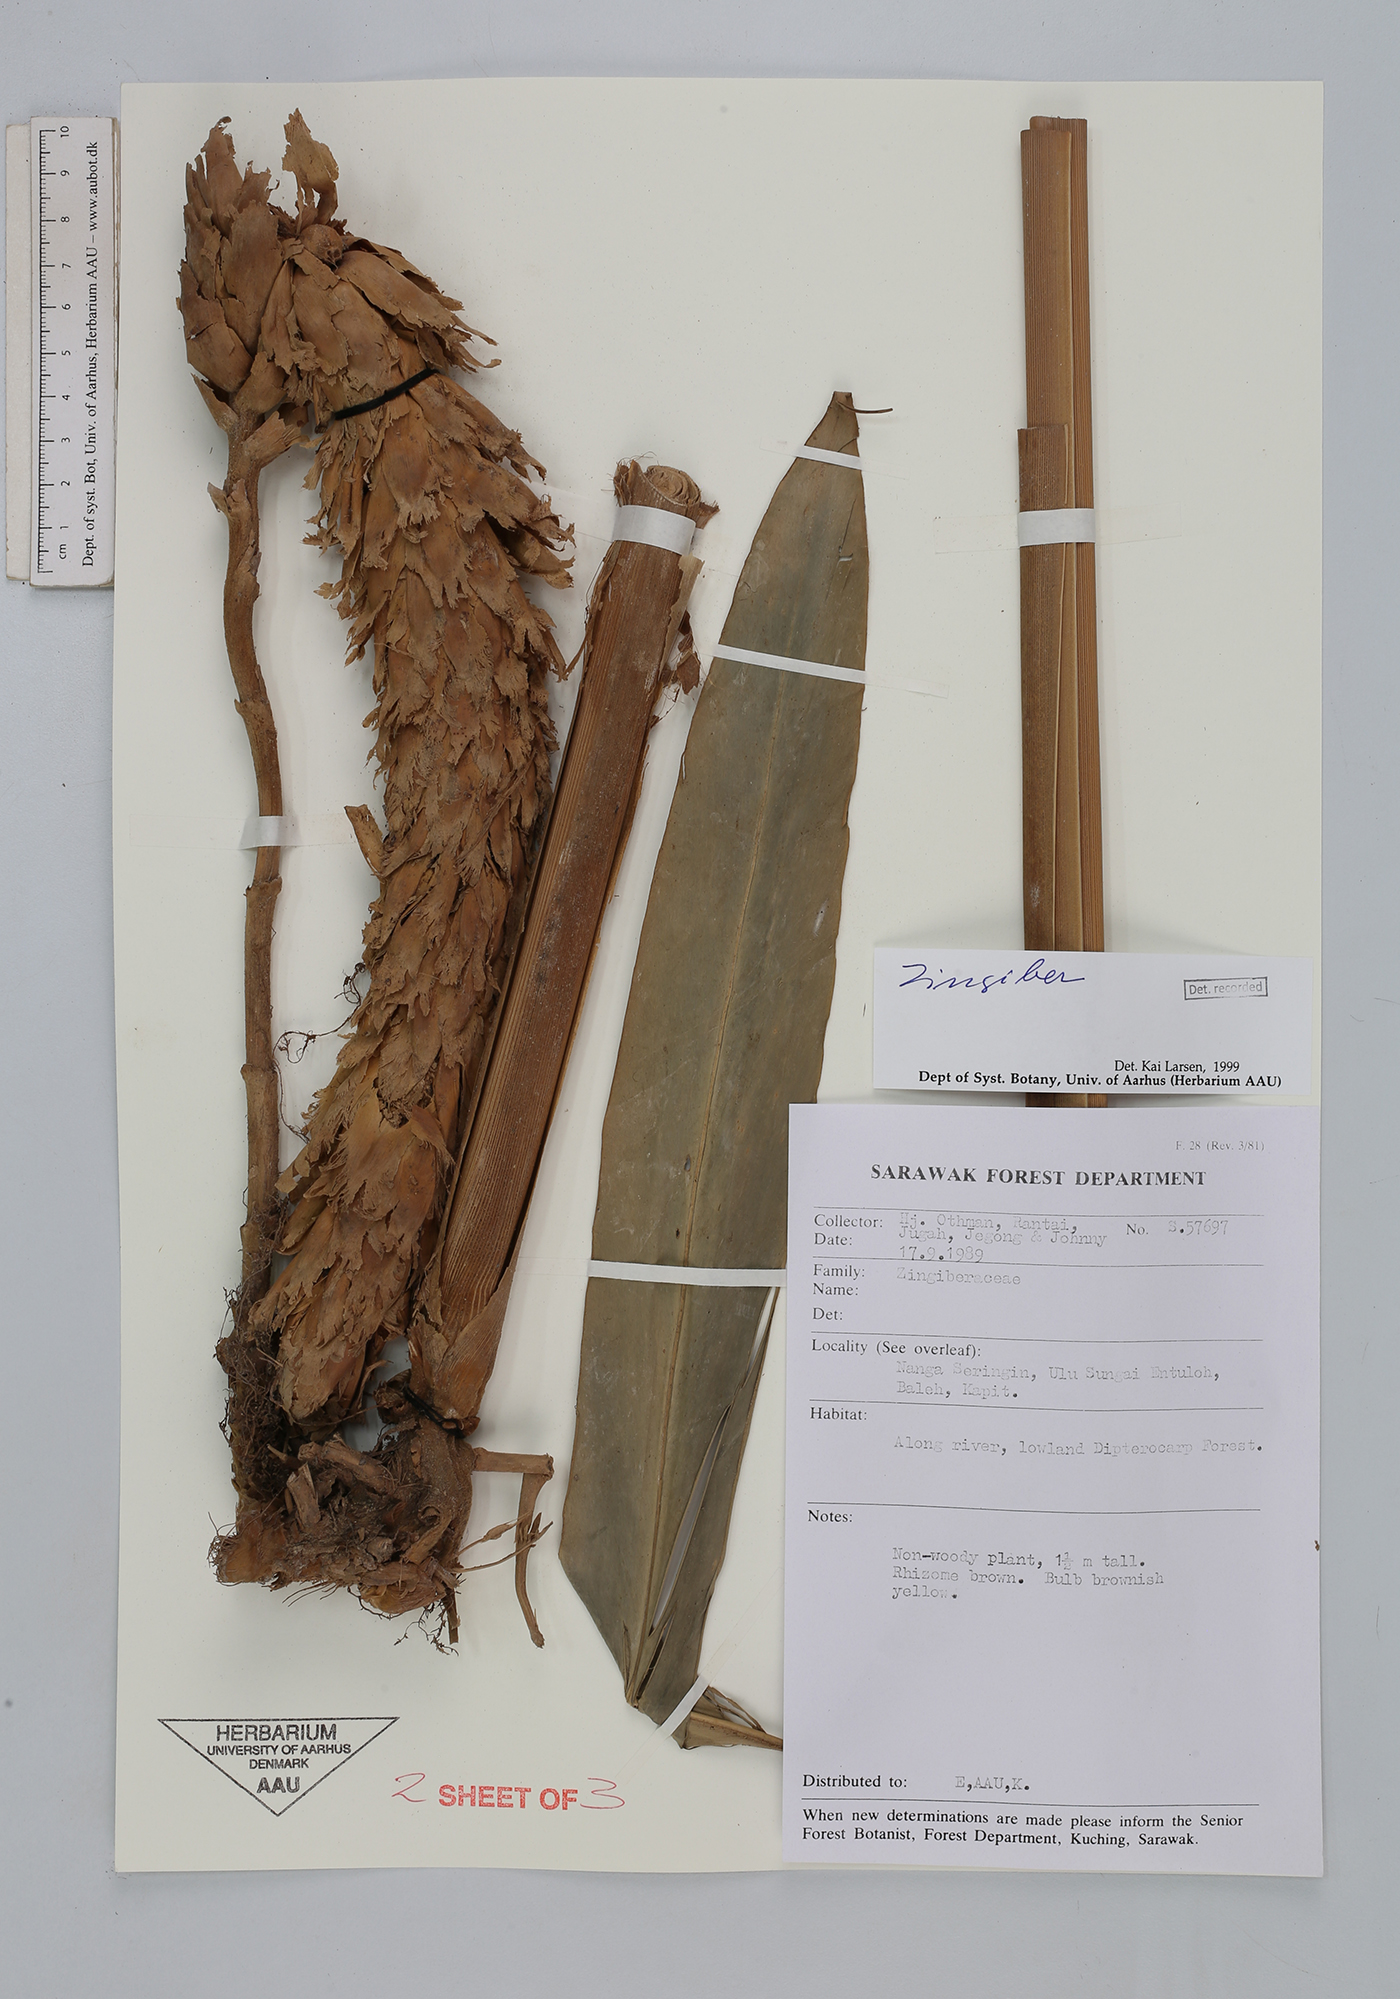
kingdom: Plantae
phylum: Tracheophyta
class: Liliopsida
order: Zingiberales
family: Zingiberaceae
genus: Zingiber
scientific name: Zingiber
